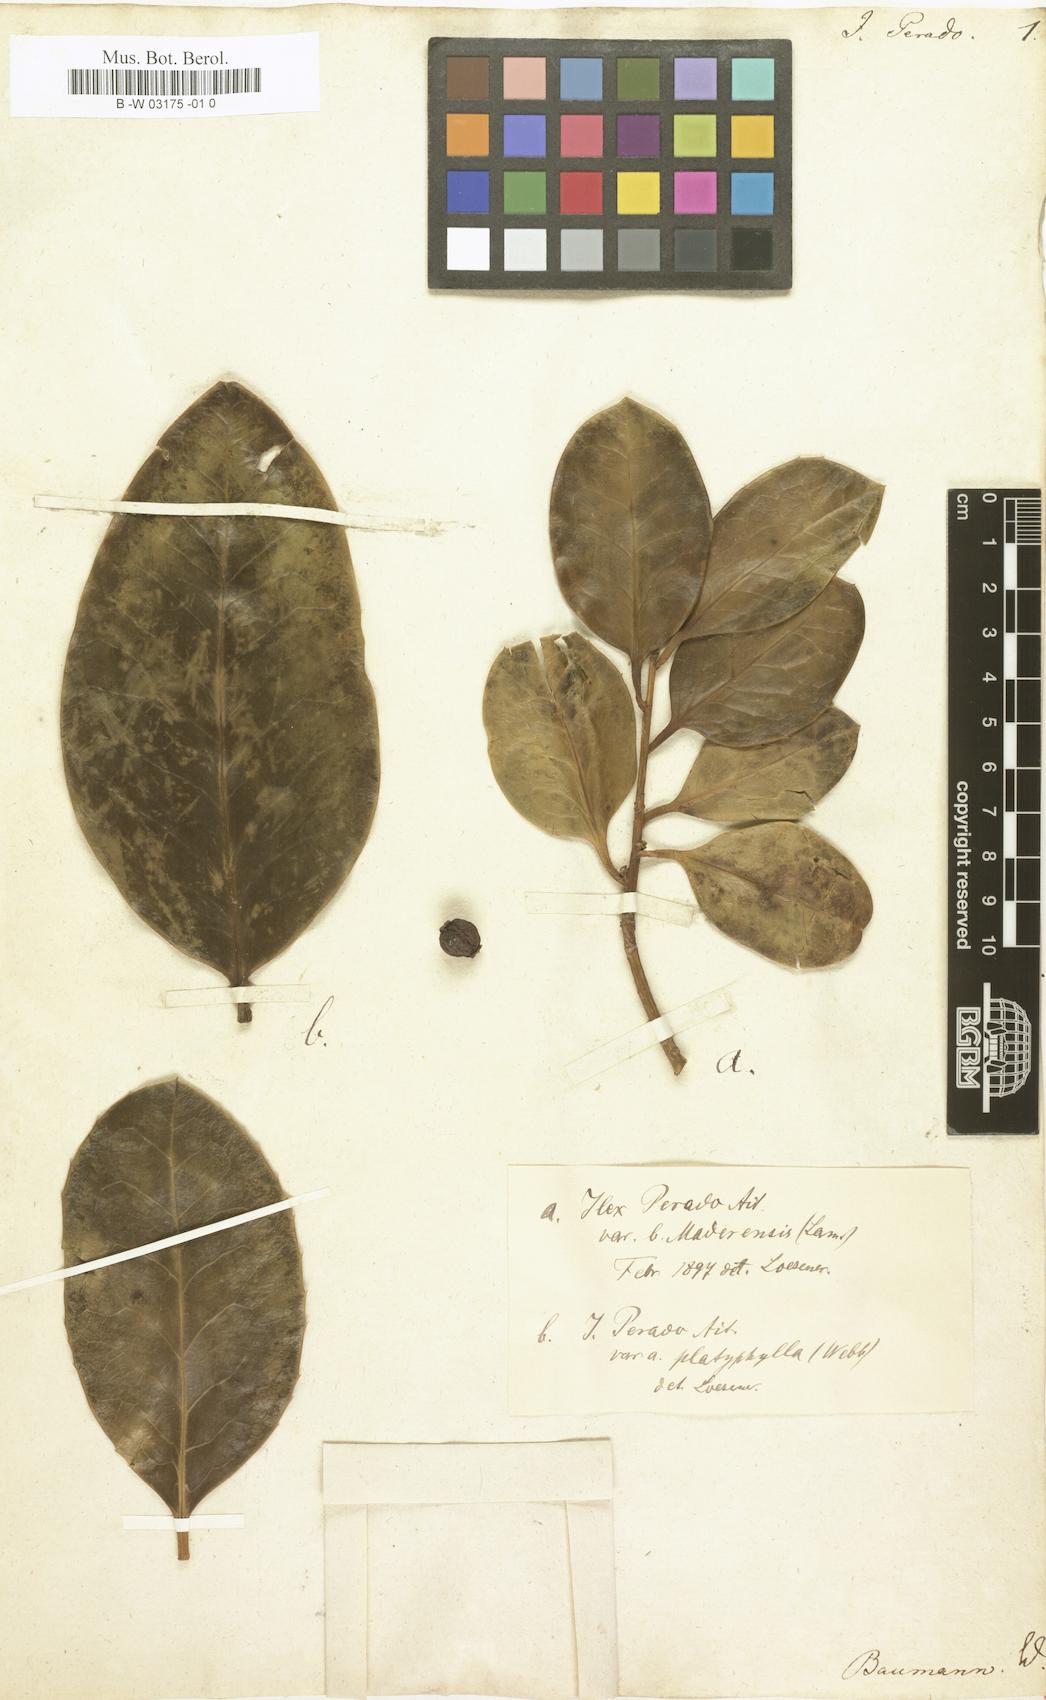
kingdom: Plantae
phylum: Tracheophyta
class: Magnoliopsida
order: Aquifoliales
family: Aquifoliaceae
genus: Ilex
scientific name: Ilex perado
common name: Madeira holly
